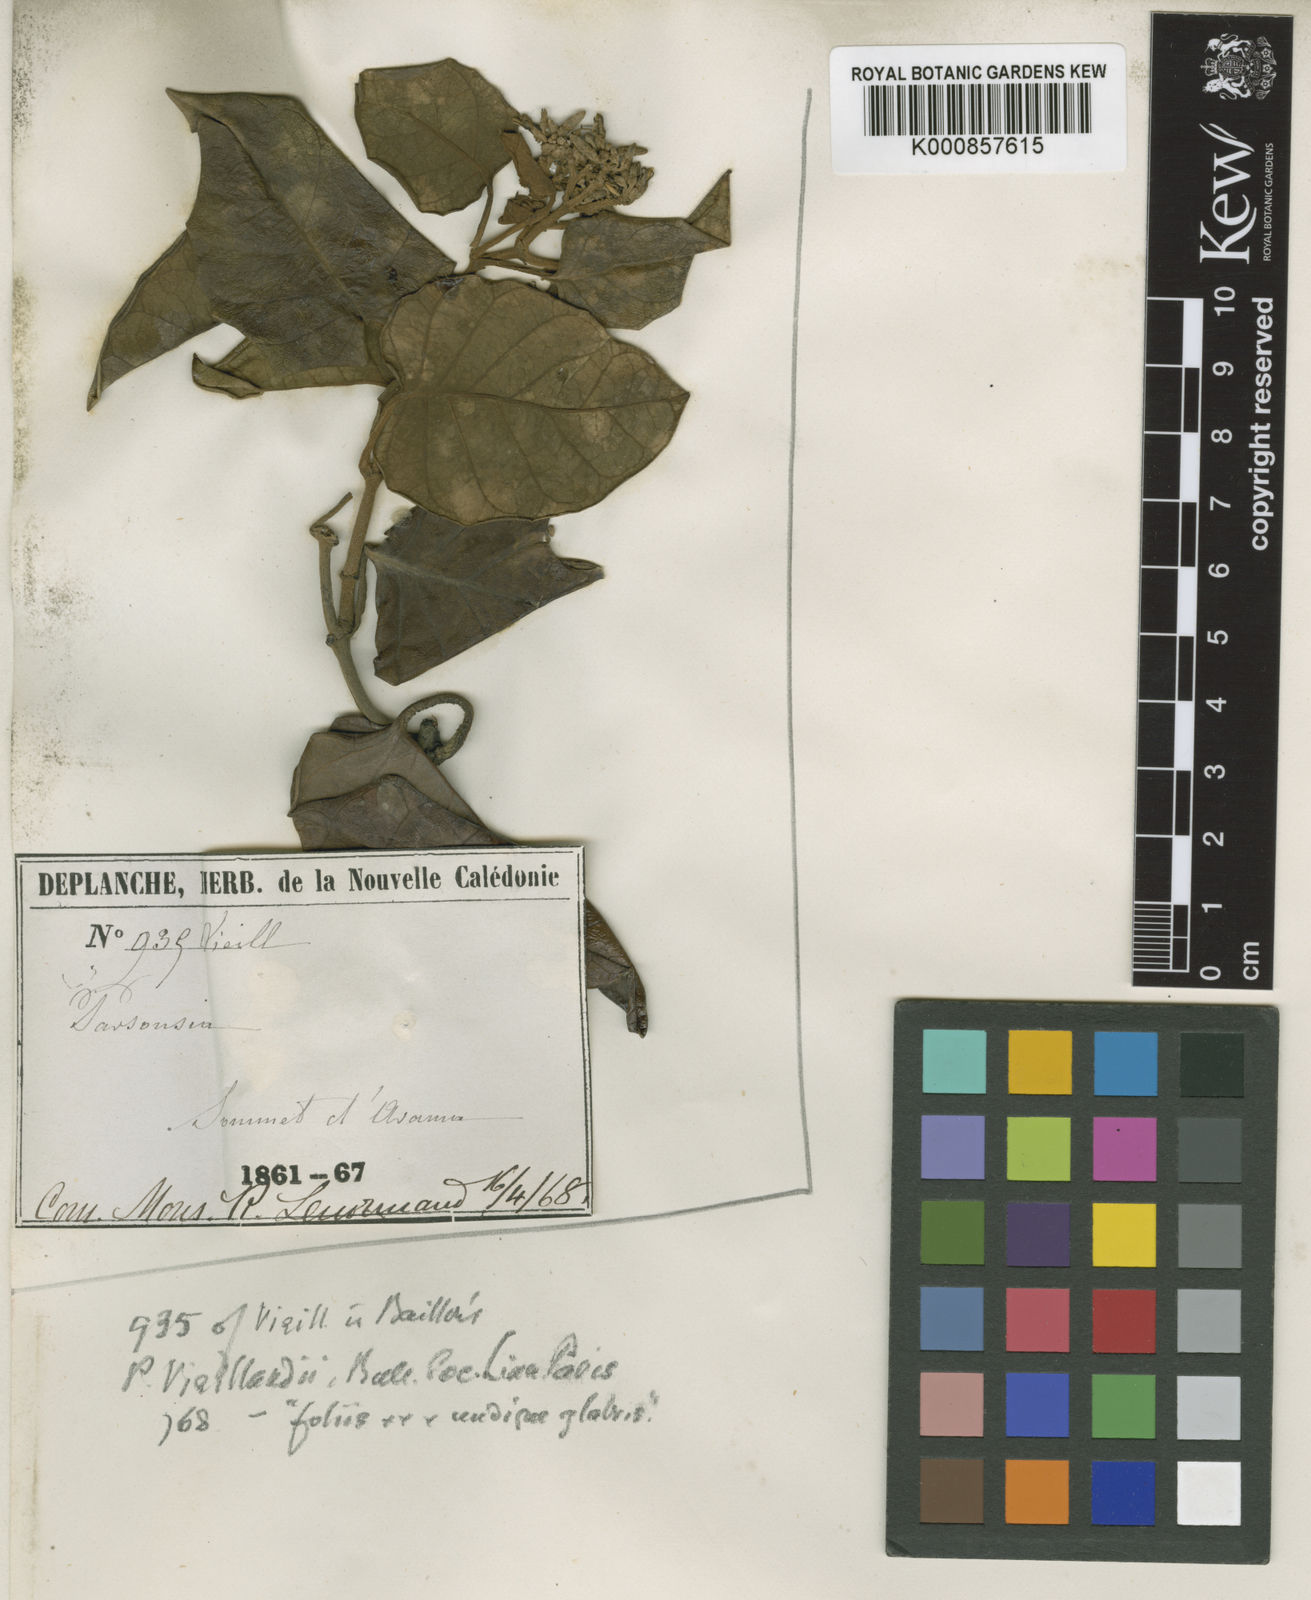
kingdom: Plantae
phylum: Tracheophyta
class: Magnoliopsida
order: Gentianales
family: Apocynaceae
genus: Parsonsia
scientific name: Parsonsia catalpicarpa
